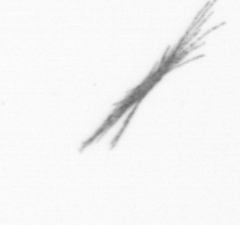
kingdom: Bacteria
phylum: Cyanobacteria
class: Cyanobacteriia
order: Cyanobacteriales
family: Microcoleaceae
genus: Trichodesmium
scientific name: Trichodesmium
